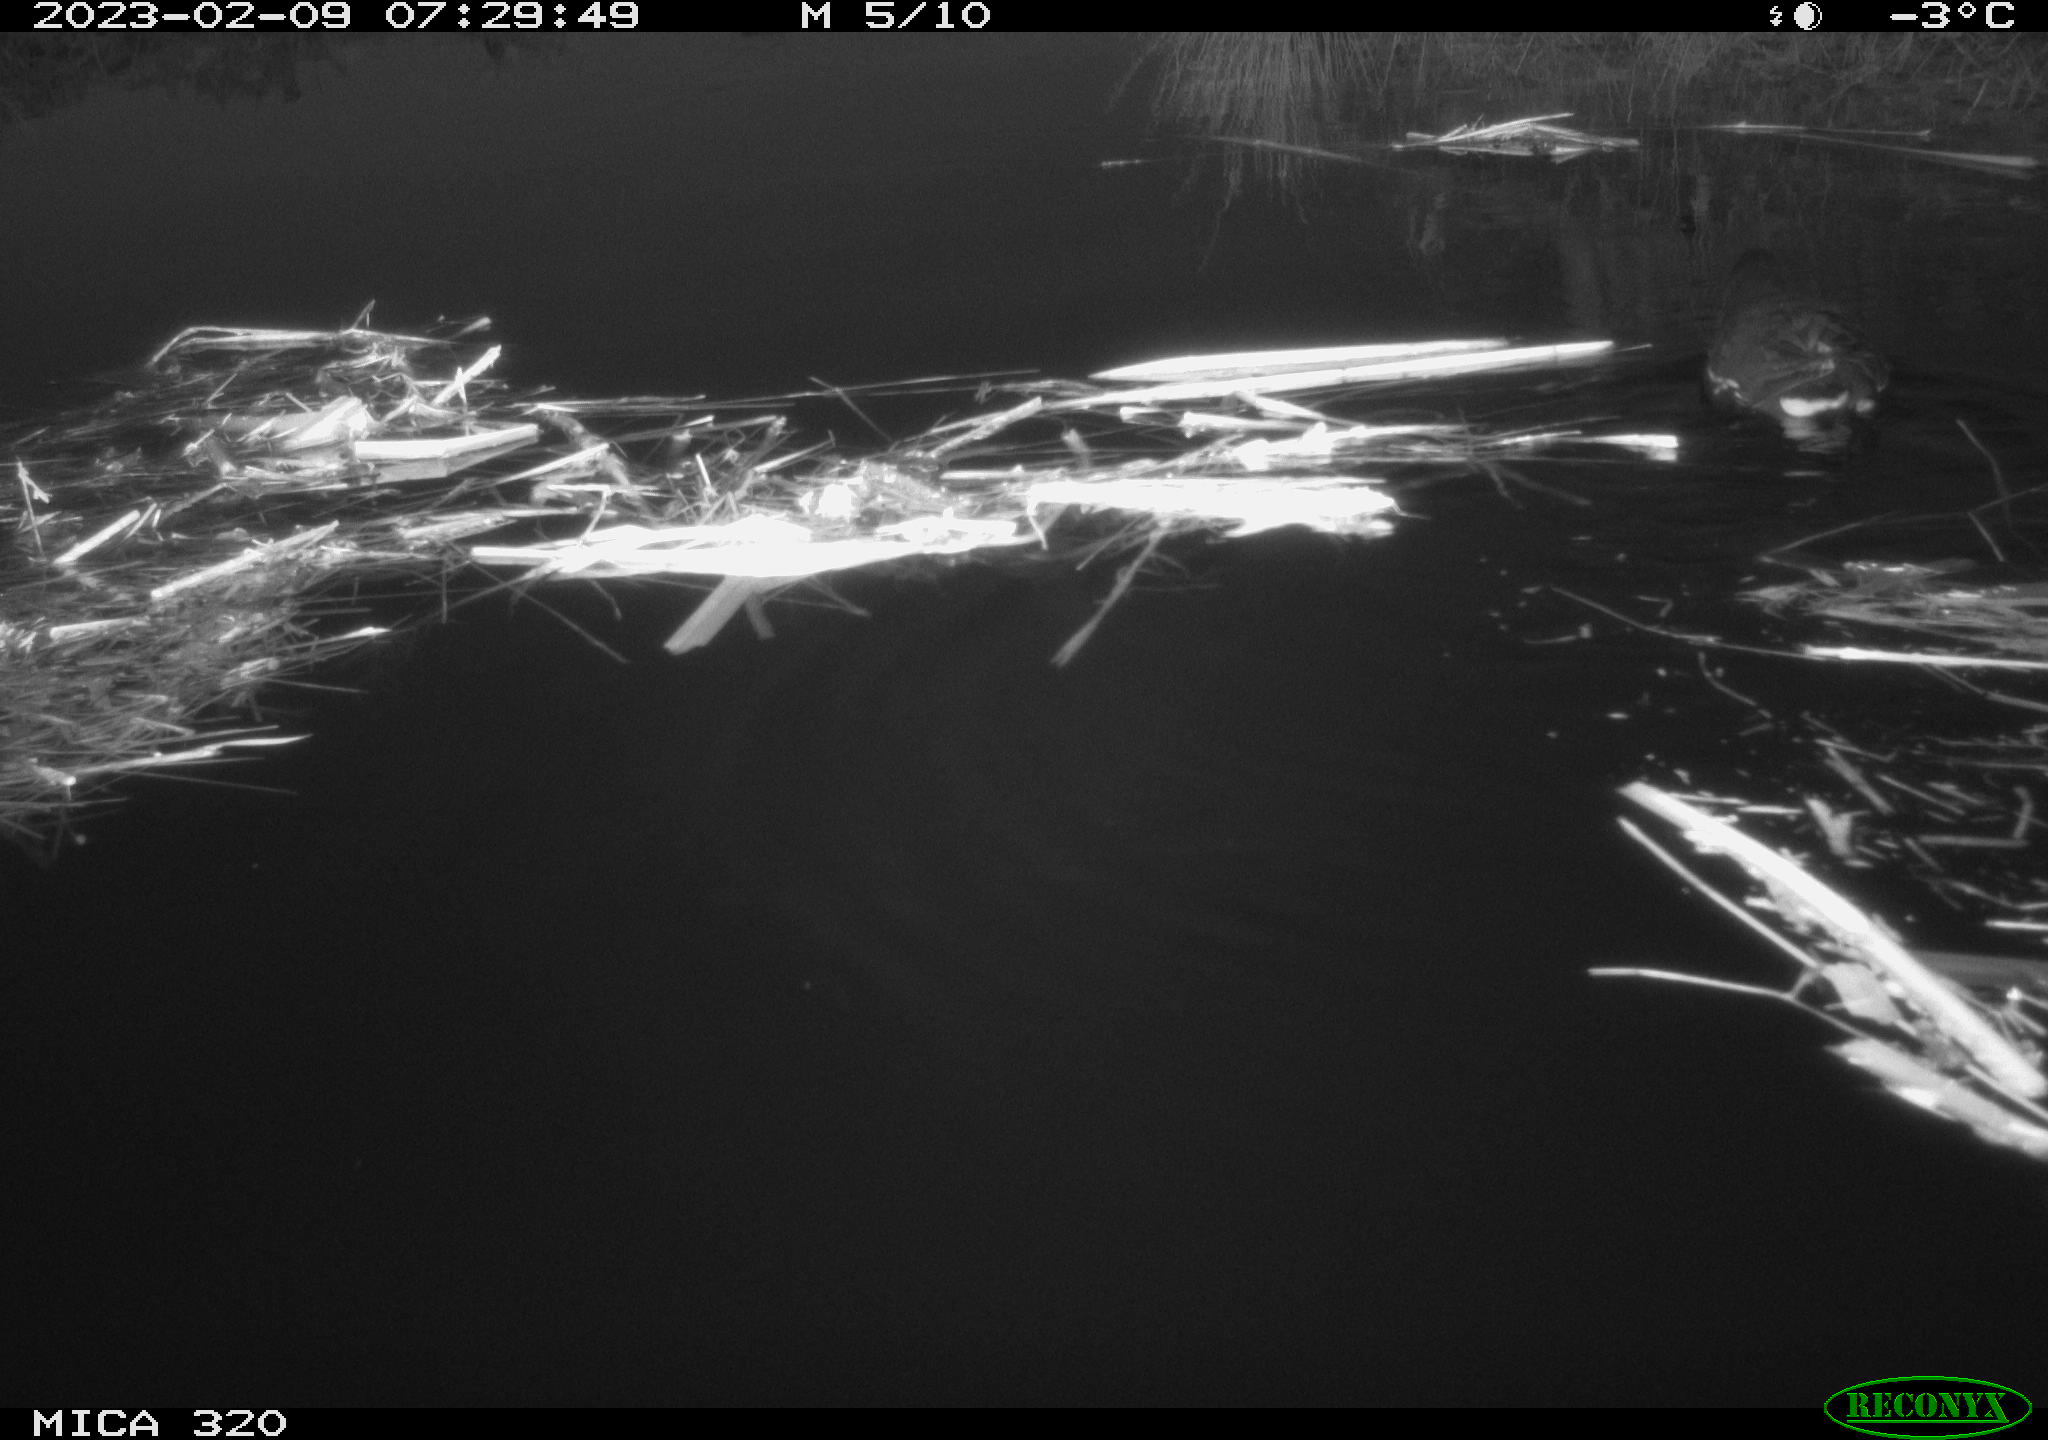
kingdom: Animalia
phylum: Chordata
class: Aves
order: Gruiformes
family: Rallidae
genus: Gallinula
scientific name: Gallinula chloropus
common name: Common moorhen
